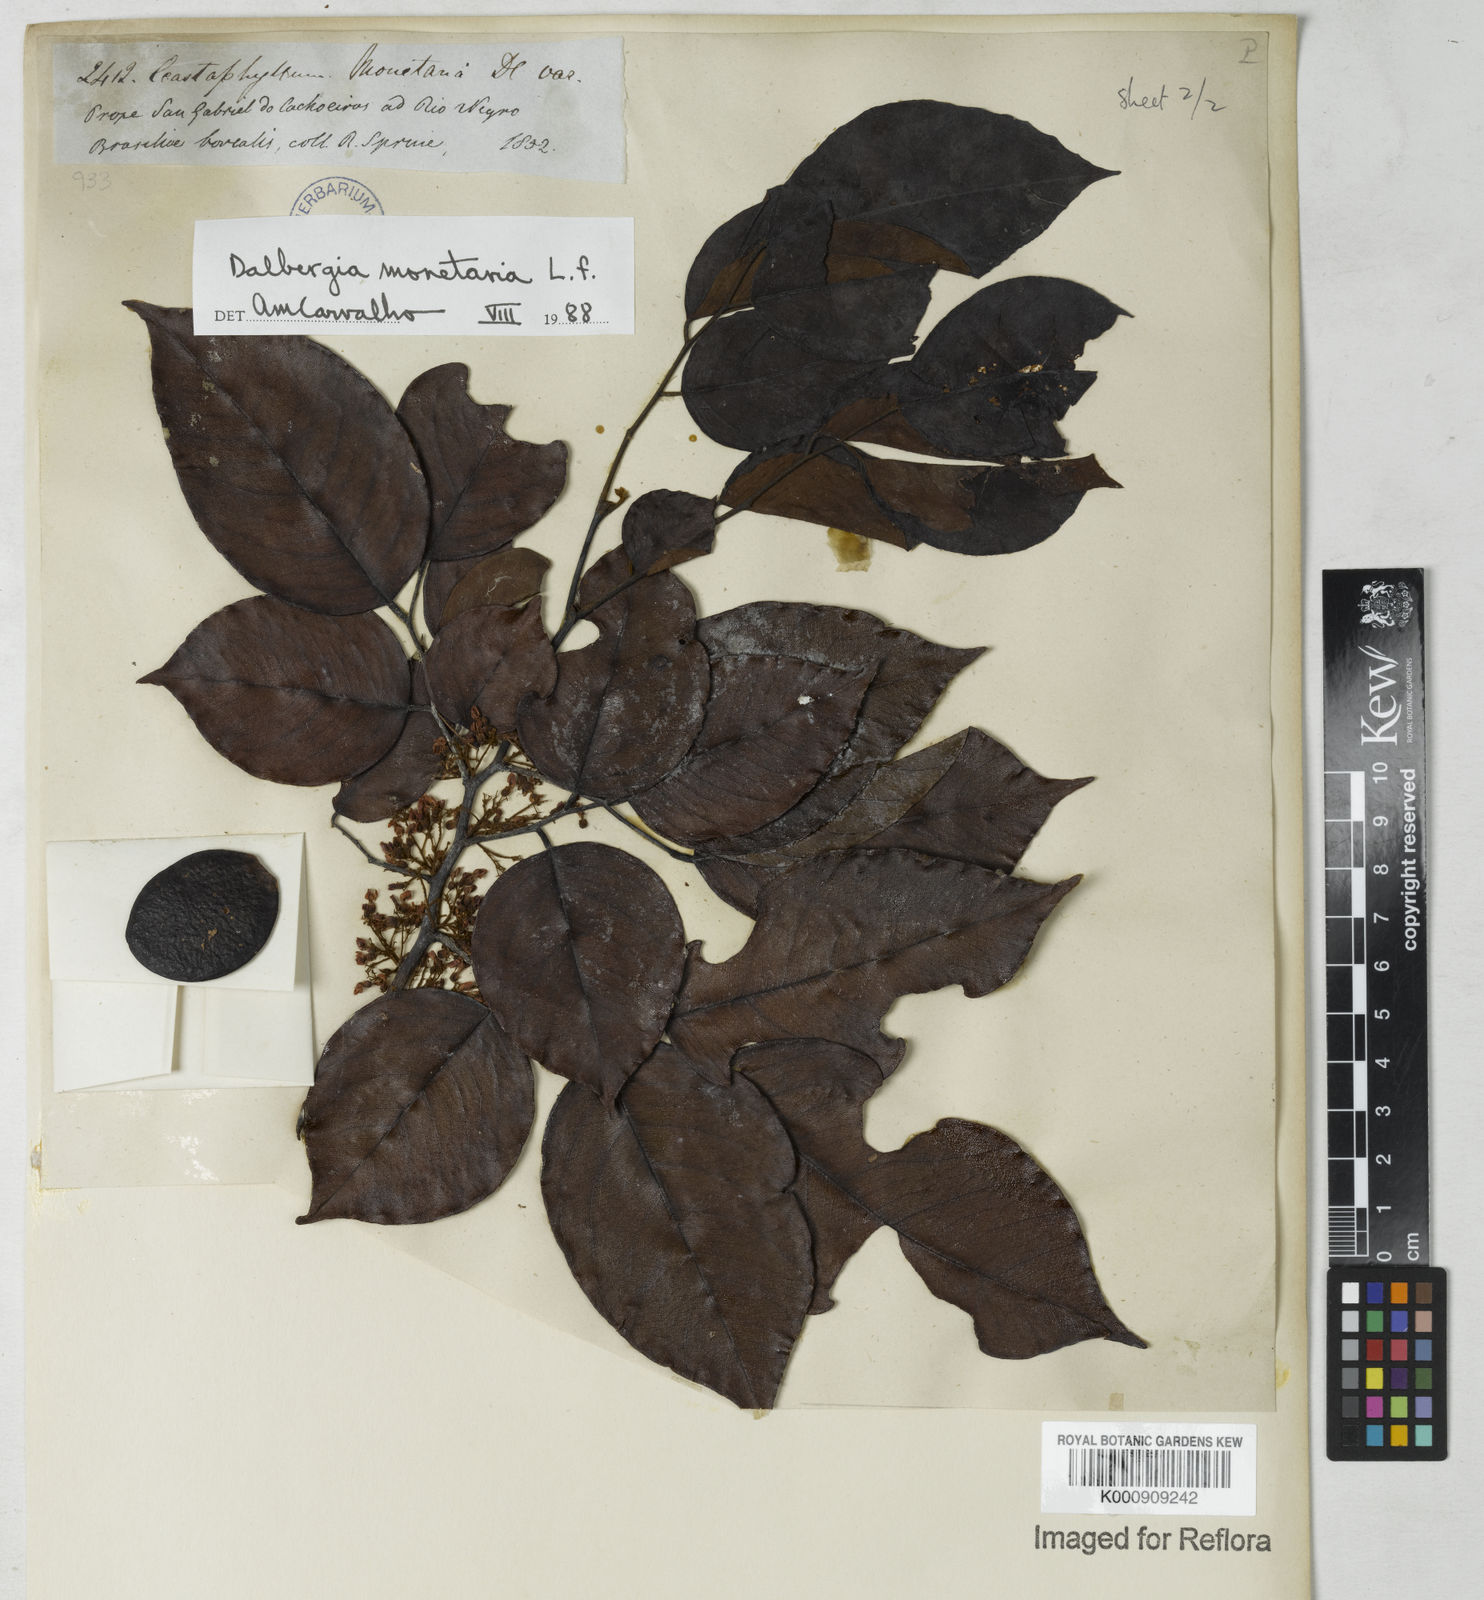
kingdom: Plantae
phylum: Tracheophyta
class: Magnoliopsida
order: Fabales
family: Fabaceae
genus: Dalbergia
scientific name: Dalbergia ovalis
